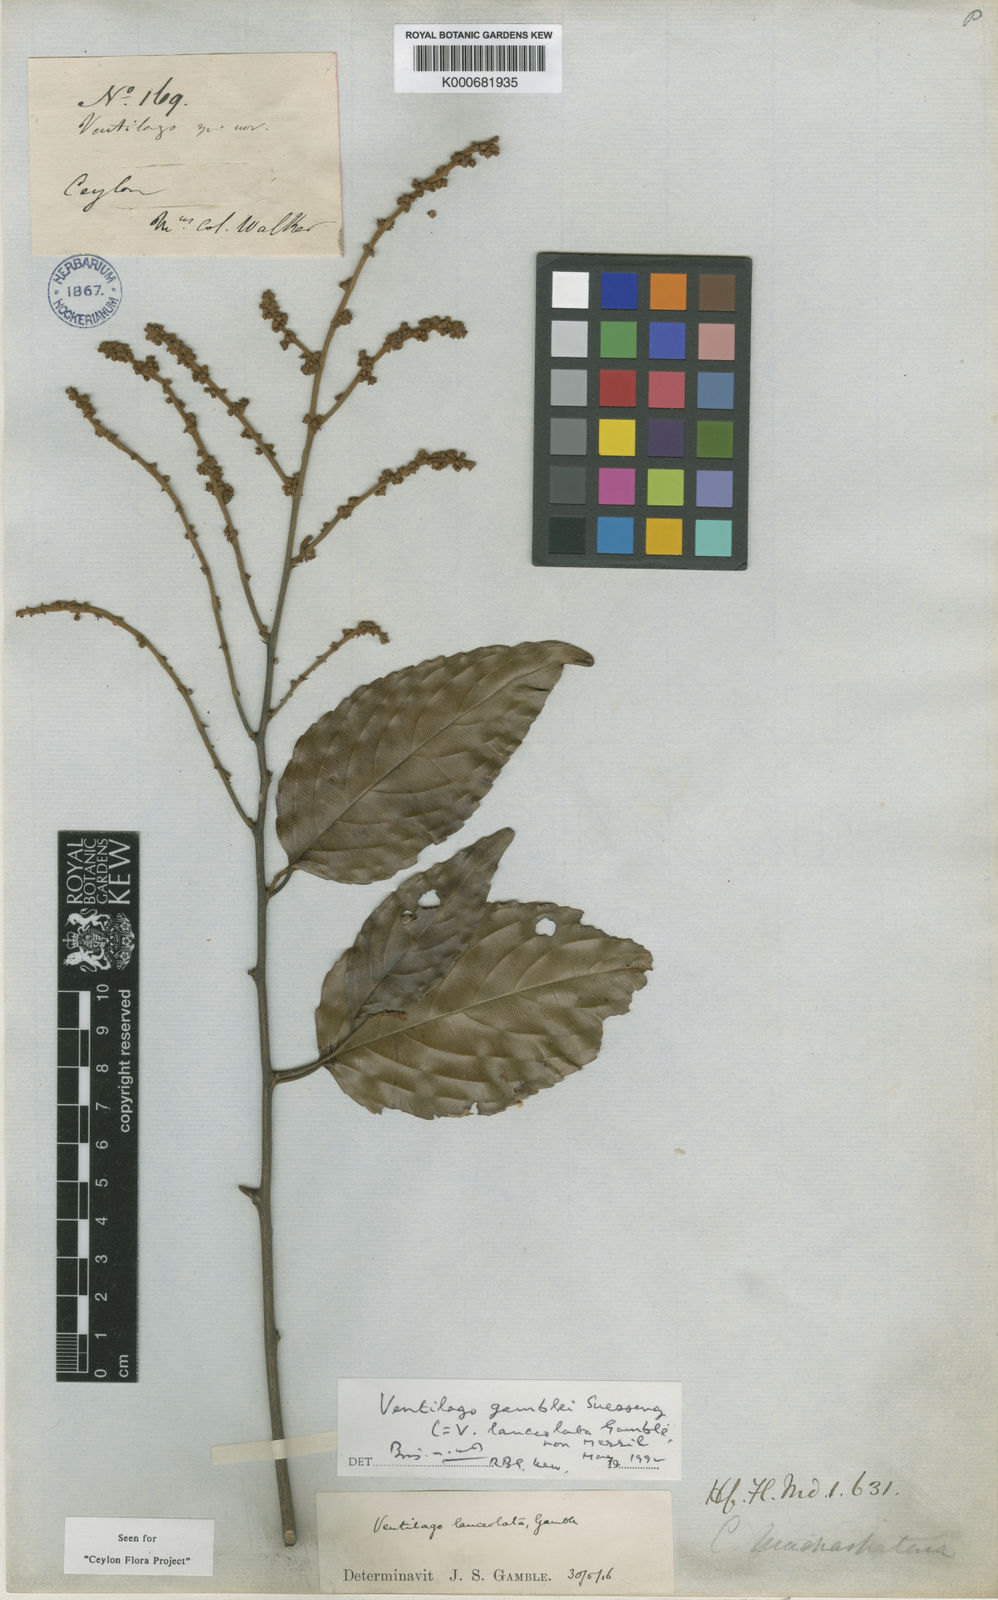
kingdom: Plantae
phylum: Tracheophyta
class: Magnoliopsida
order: Rosales
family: Rhamnaceae
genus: Ventilago
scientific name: Ventilago gamblei
